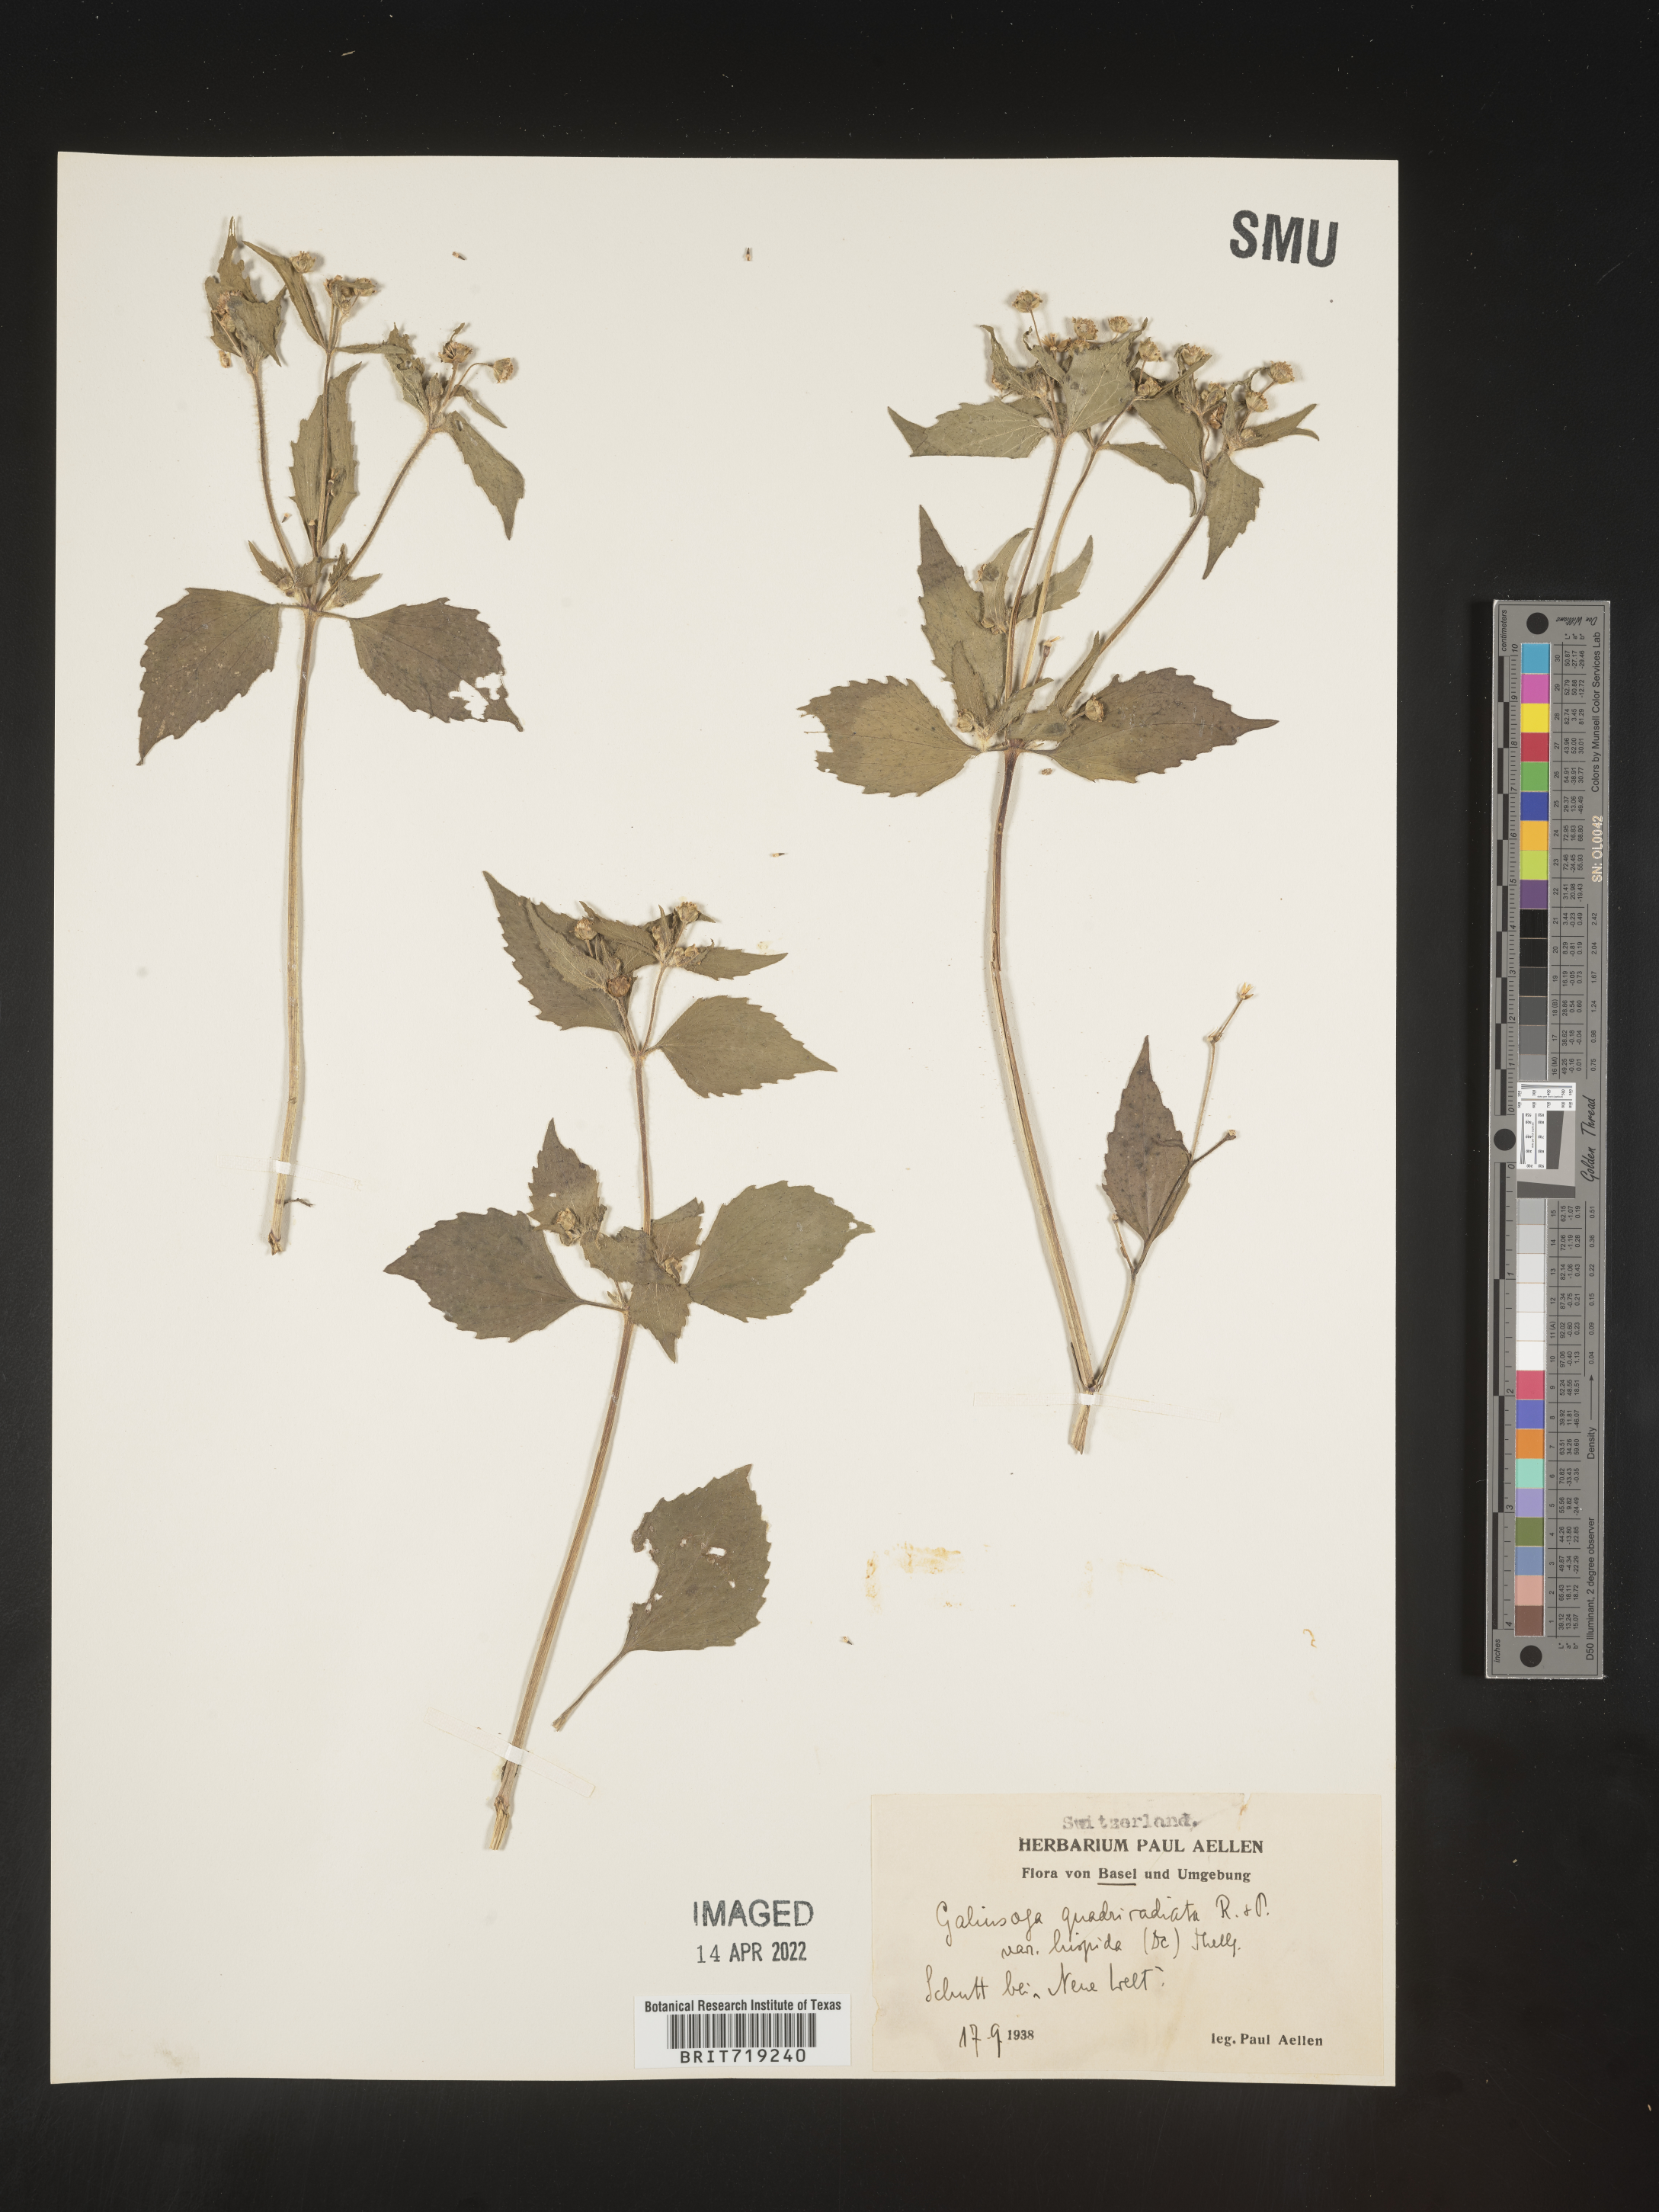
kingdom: Plantae
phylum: Tracheophyta
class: Magnoliopsida
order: Asterales
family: Asteraceae
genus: Galinsoga
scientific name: Galinsoga
